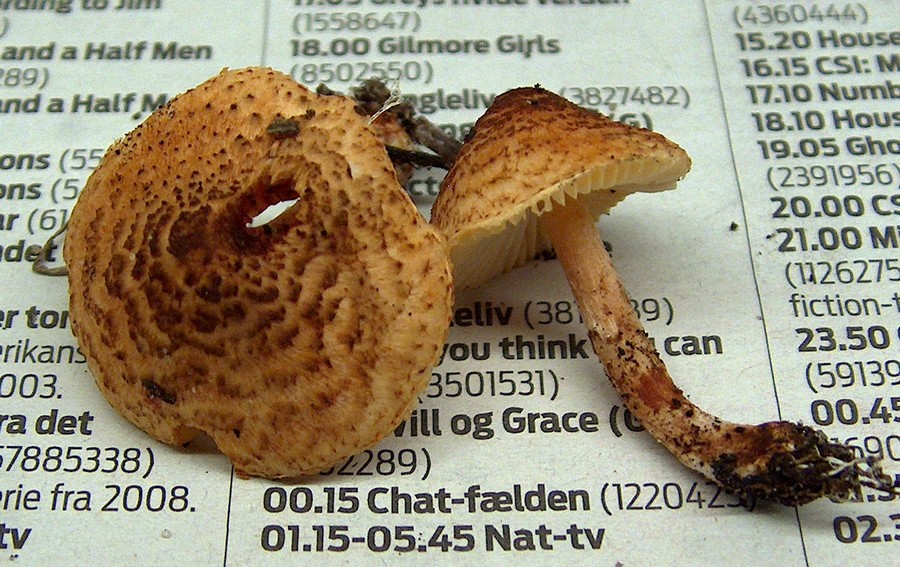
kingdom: Fungi
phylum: Basidiomycota
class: Agaricomycetes
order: Agaricales
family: Agaricaceae
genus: Lepiota
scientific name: Lepiota castanea
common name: kastaniebrun parasolhat
